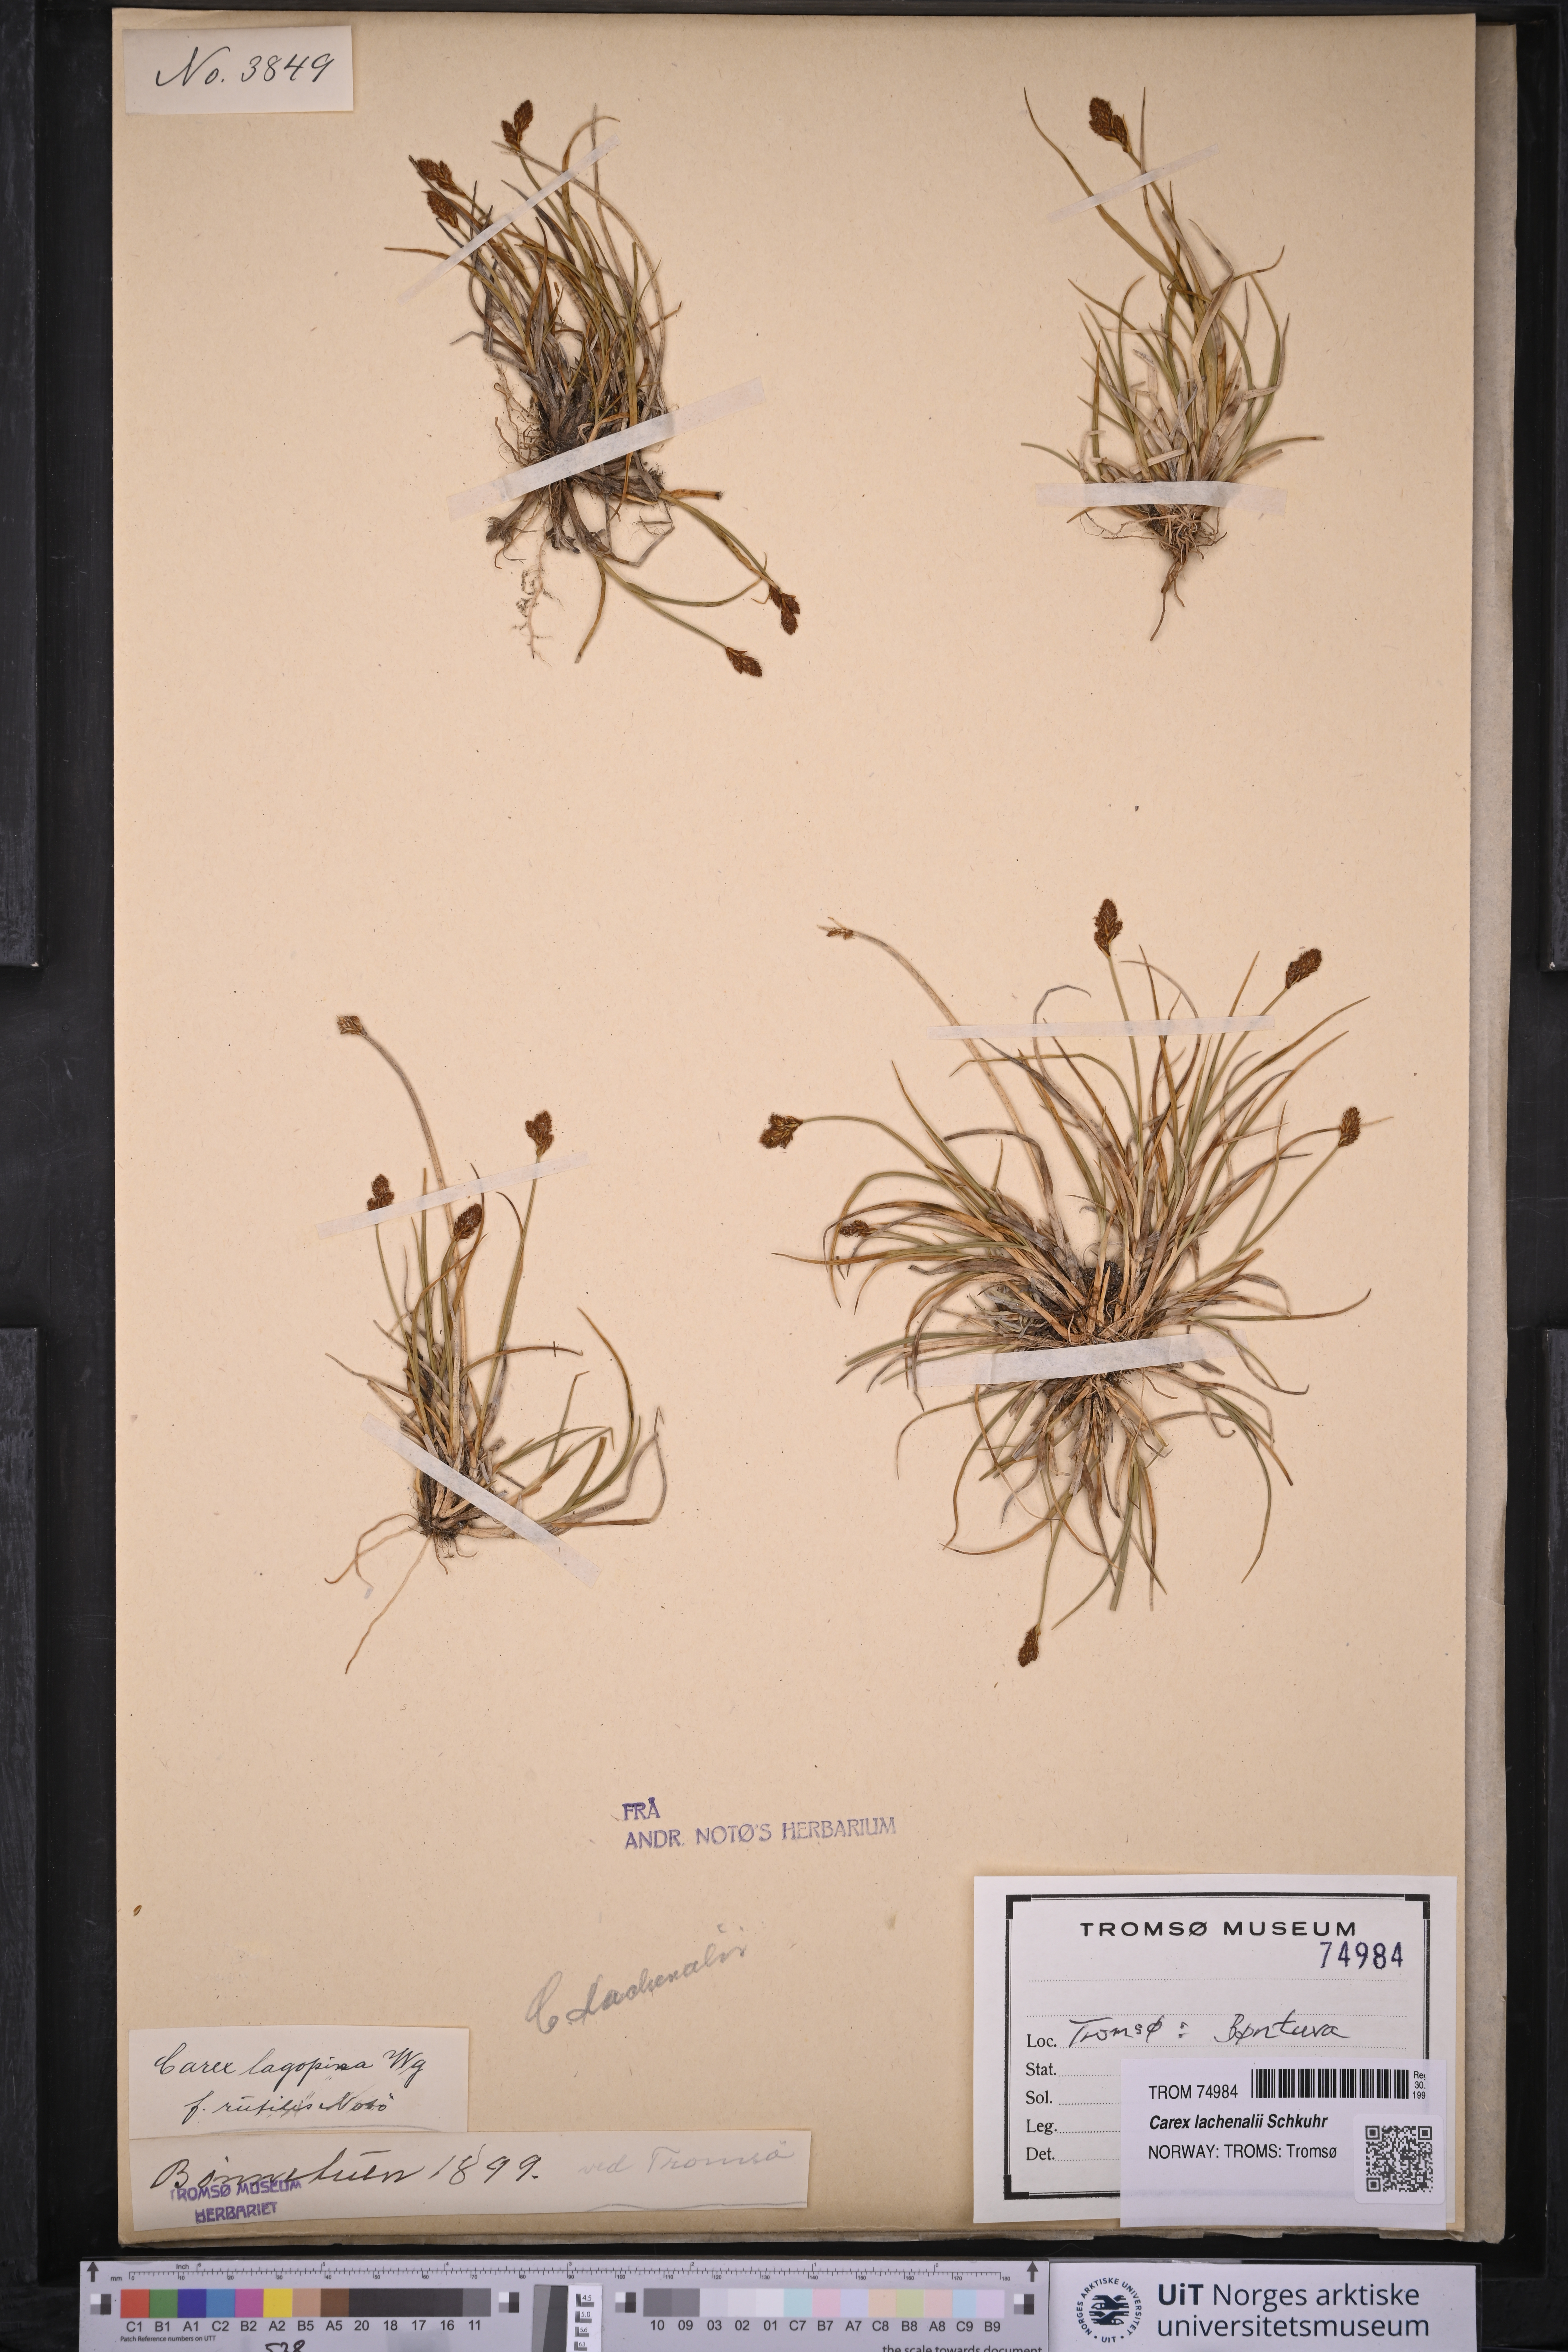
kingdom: Plantae
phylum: Tracheophyta
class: Liliopsida
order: Poales
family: Cyperaceae
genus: Carex
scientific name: Carex lachenalii
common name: Hare's-foot sedge
